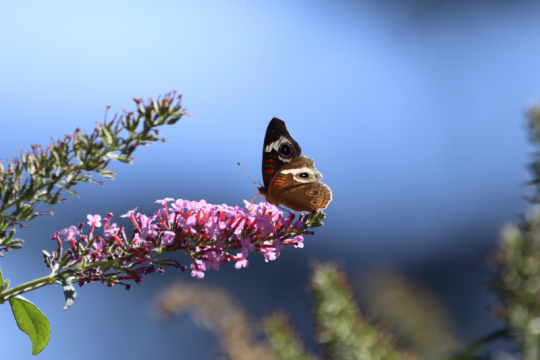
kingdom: Animalia
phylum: Arthropoda
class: Insecta
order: Lepidoptera
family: Nymphalidae
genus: Junonia
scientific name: Junonia coenia
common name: Common Buckeye
